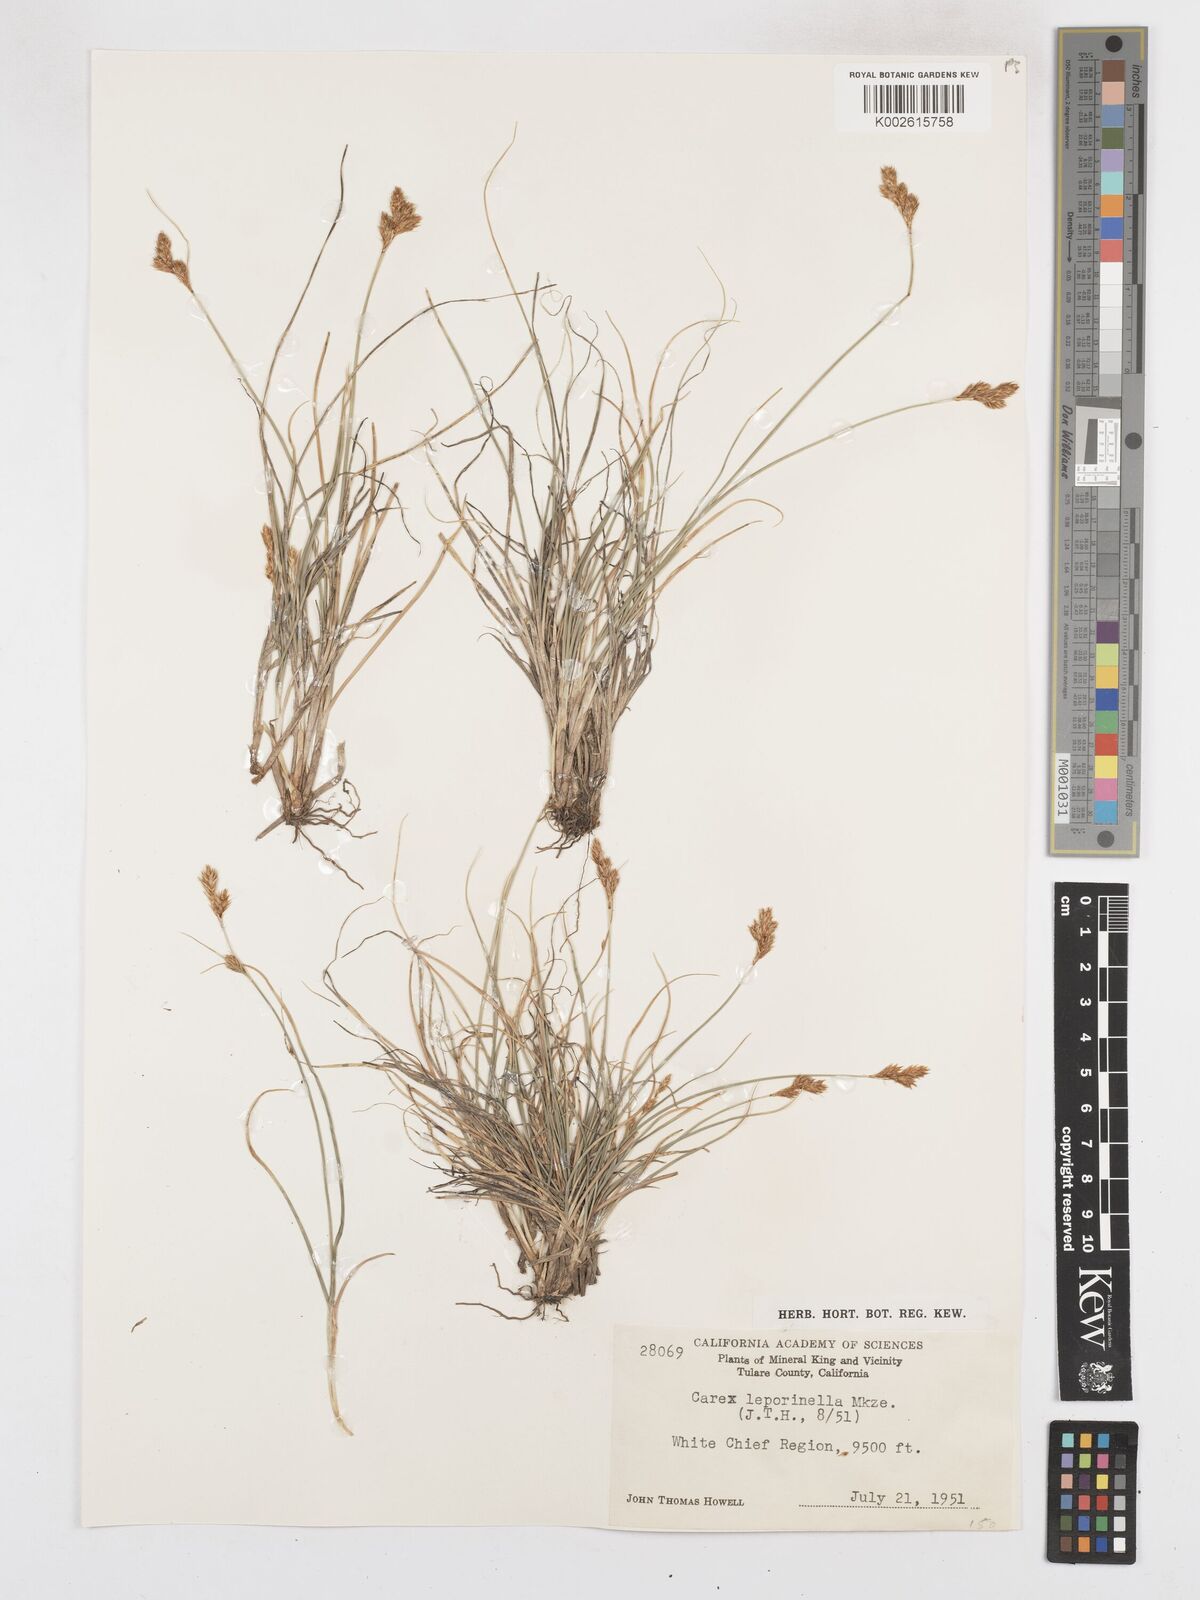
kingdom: Plantae
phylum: Tracheophyta
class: Liliopsida
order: Poales
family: Cyperaceae
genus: Carex
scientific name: Carex leporinella
